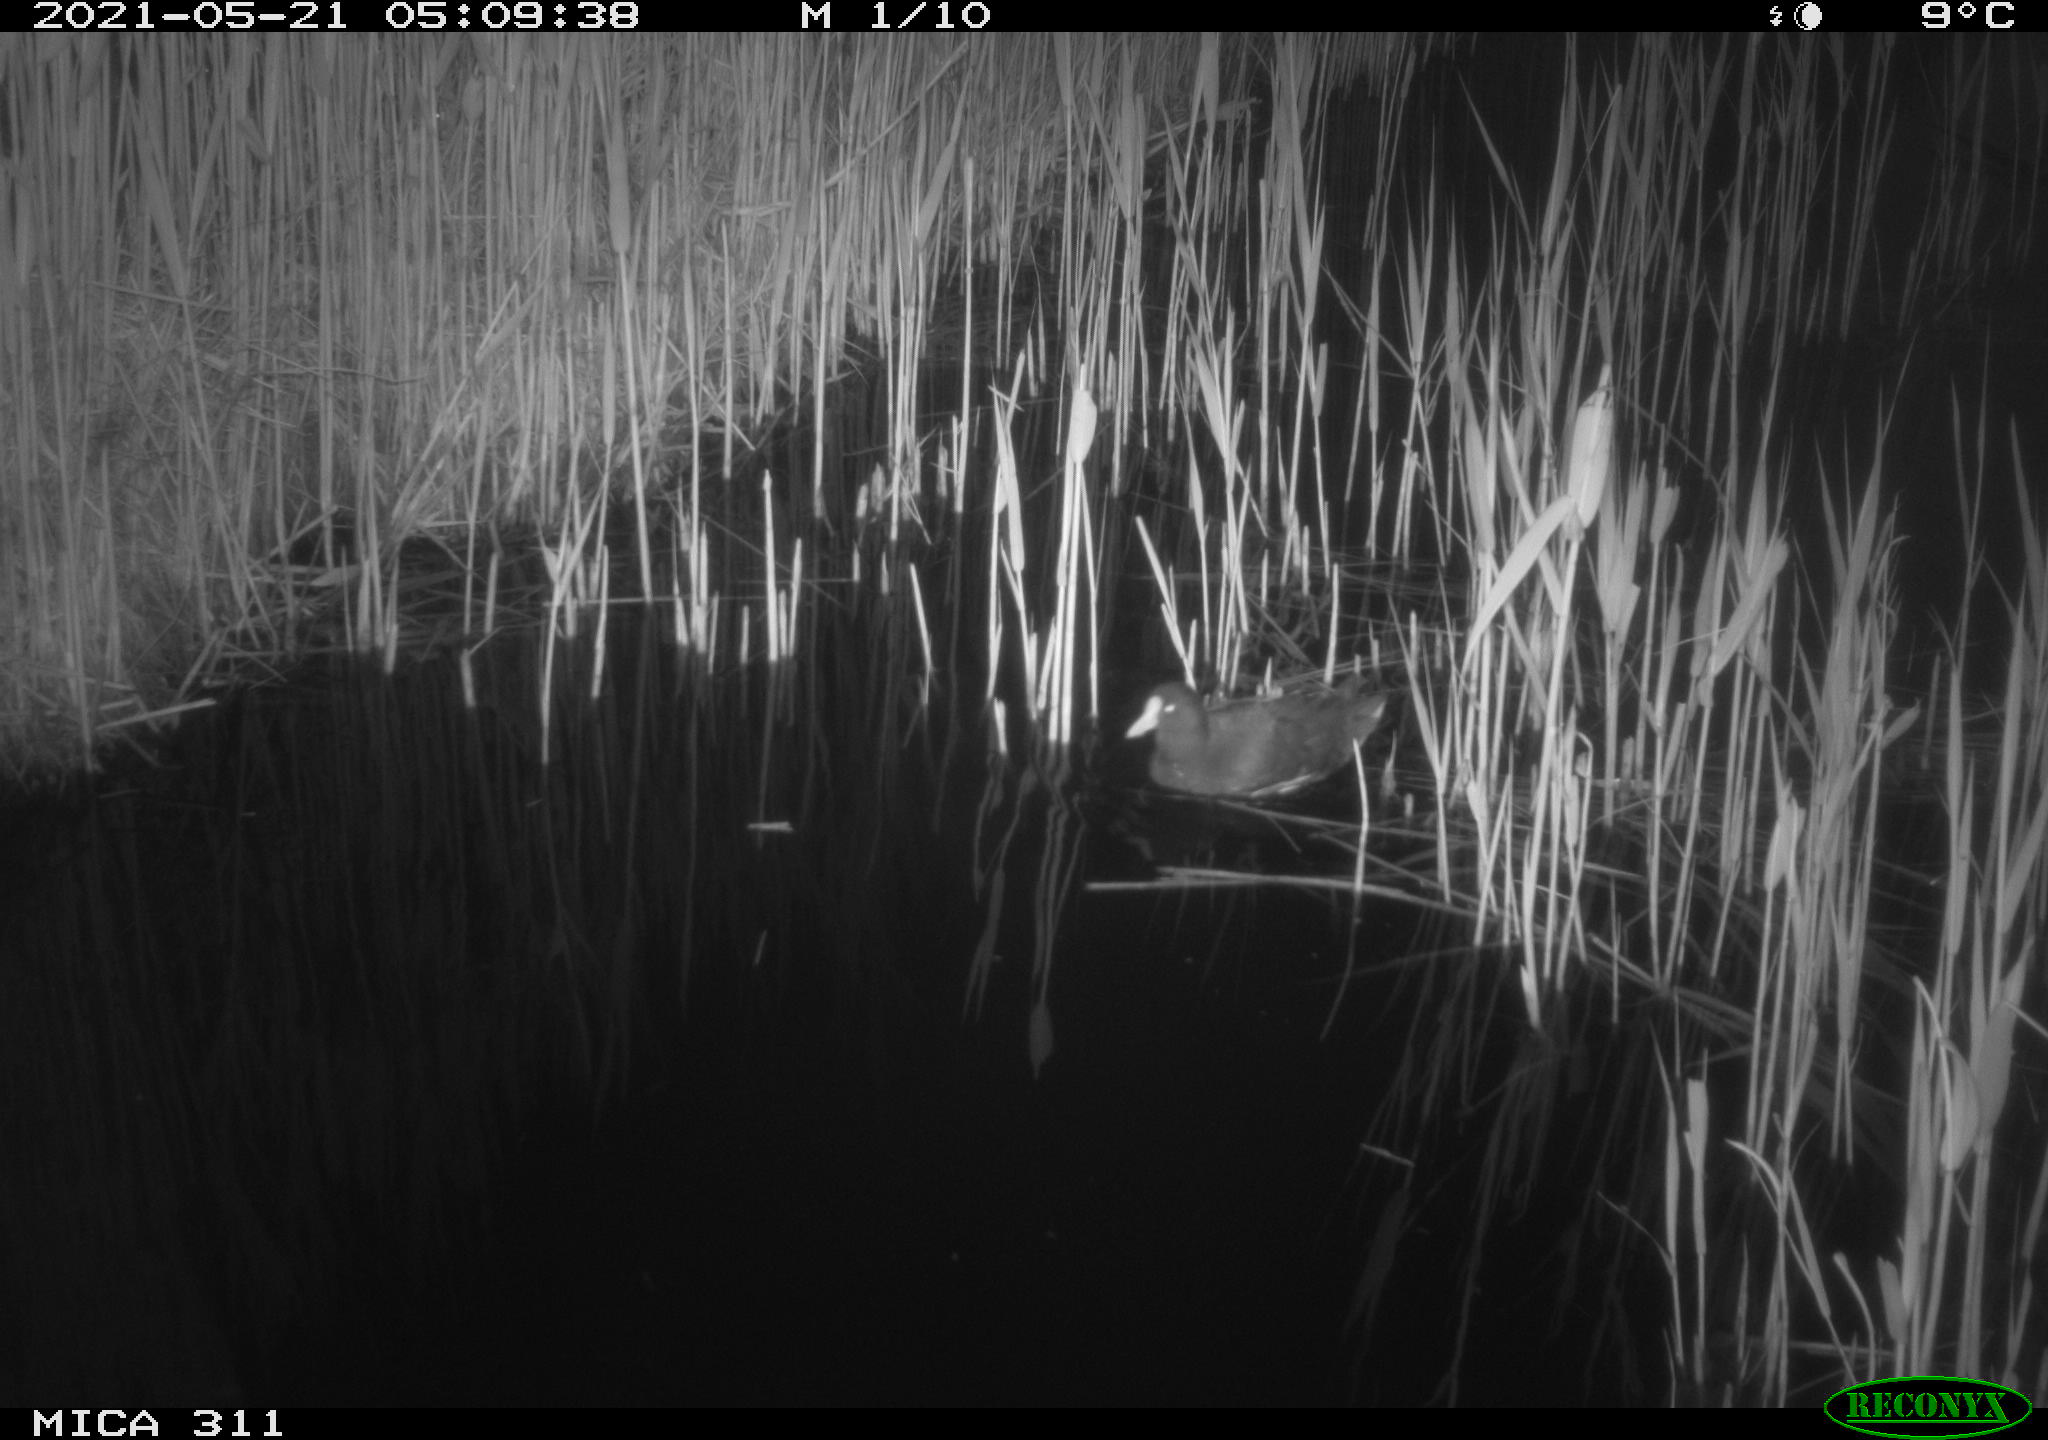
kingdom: Animalia
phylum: Chordata
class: Aves
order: Gruiformes
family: Rallidae
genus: Gallinula
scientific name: Gallinula chloropus
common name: Common moorhen
